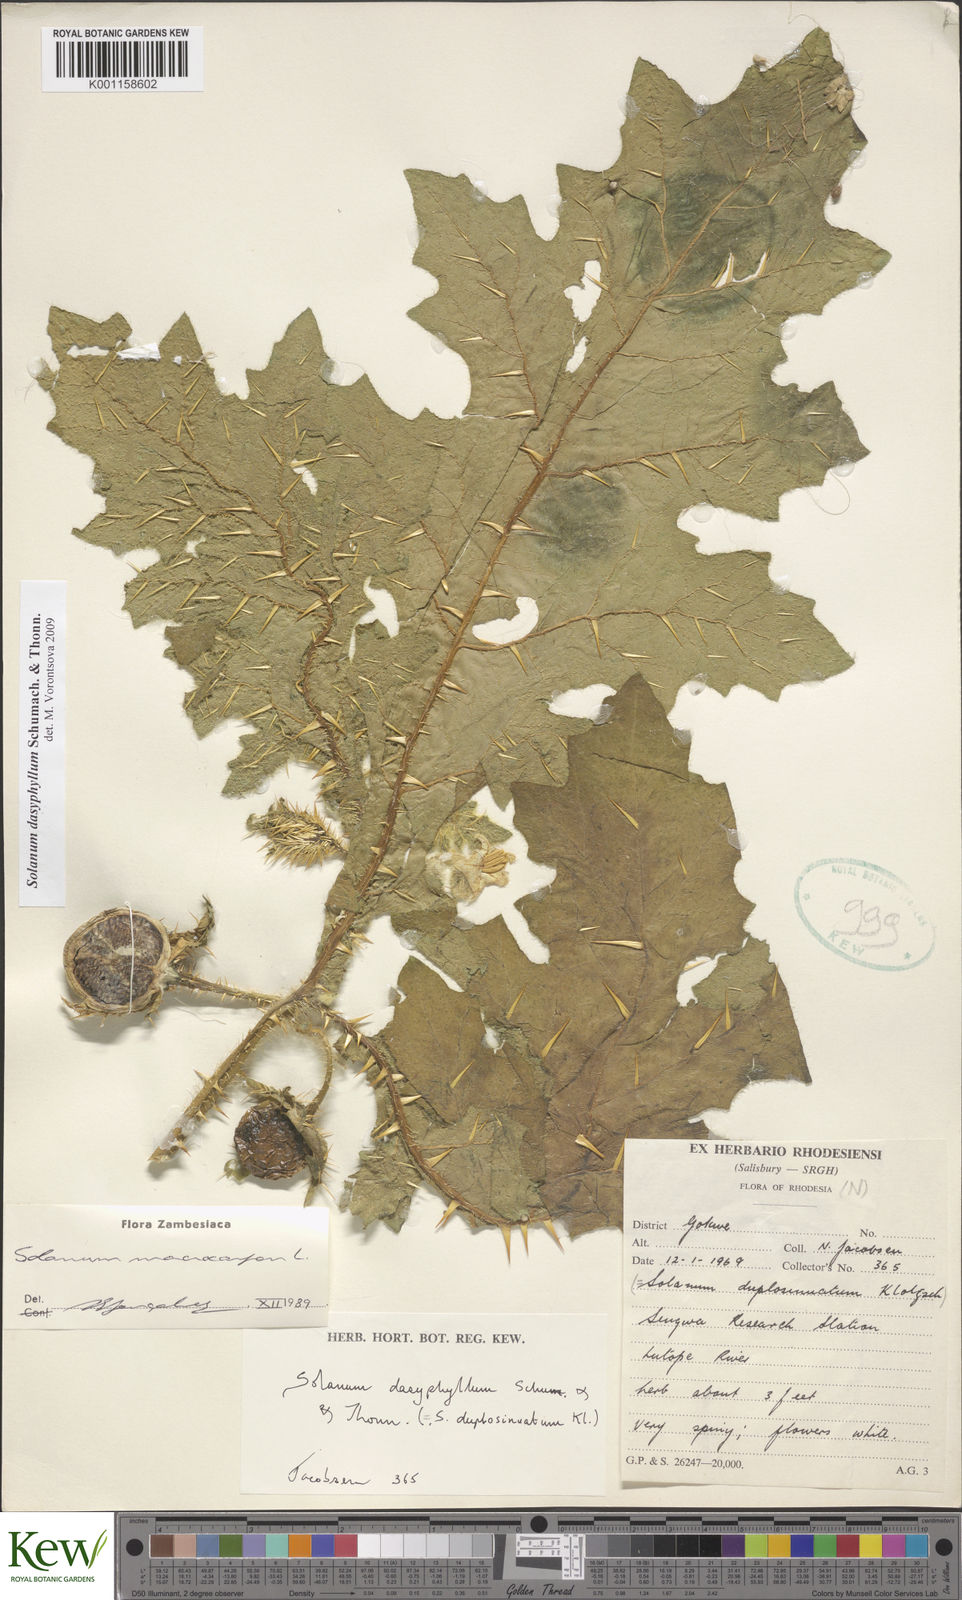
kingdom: Plantae
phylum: Tracheophyta
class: Magnoliopsida
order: Solanales
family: Solanaceae
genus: Solanum
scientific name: Solanum dasyphyllum
